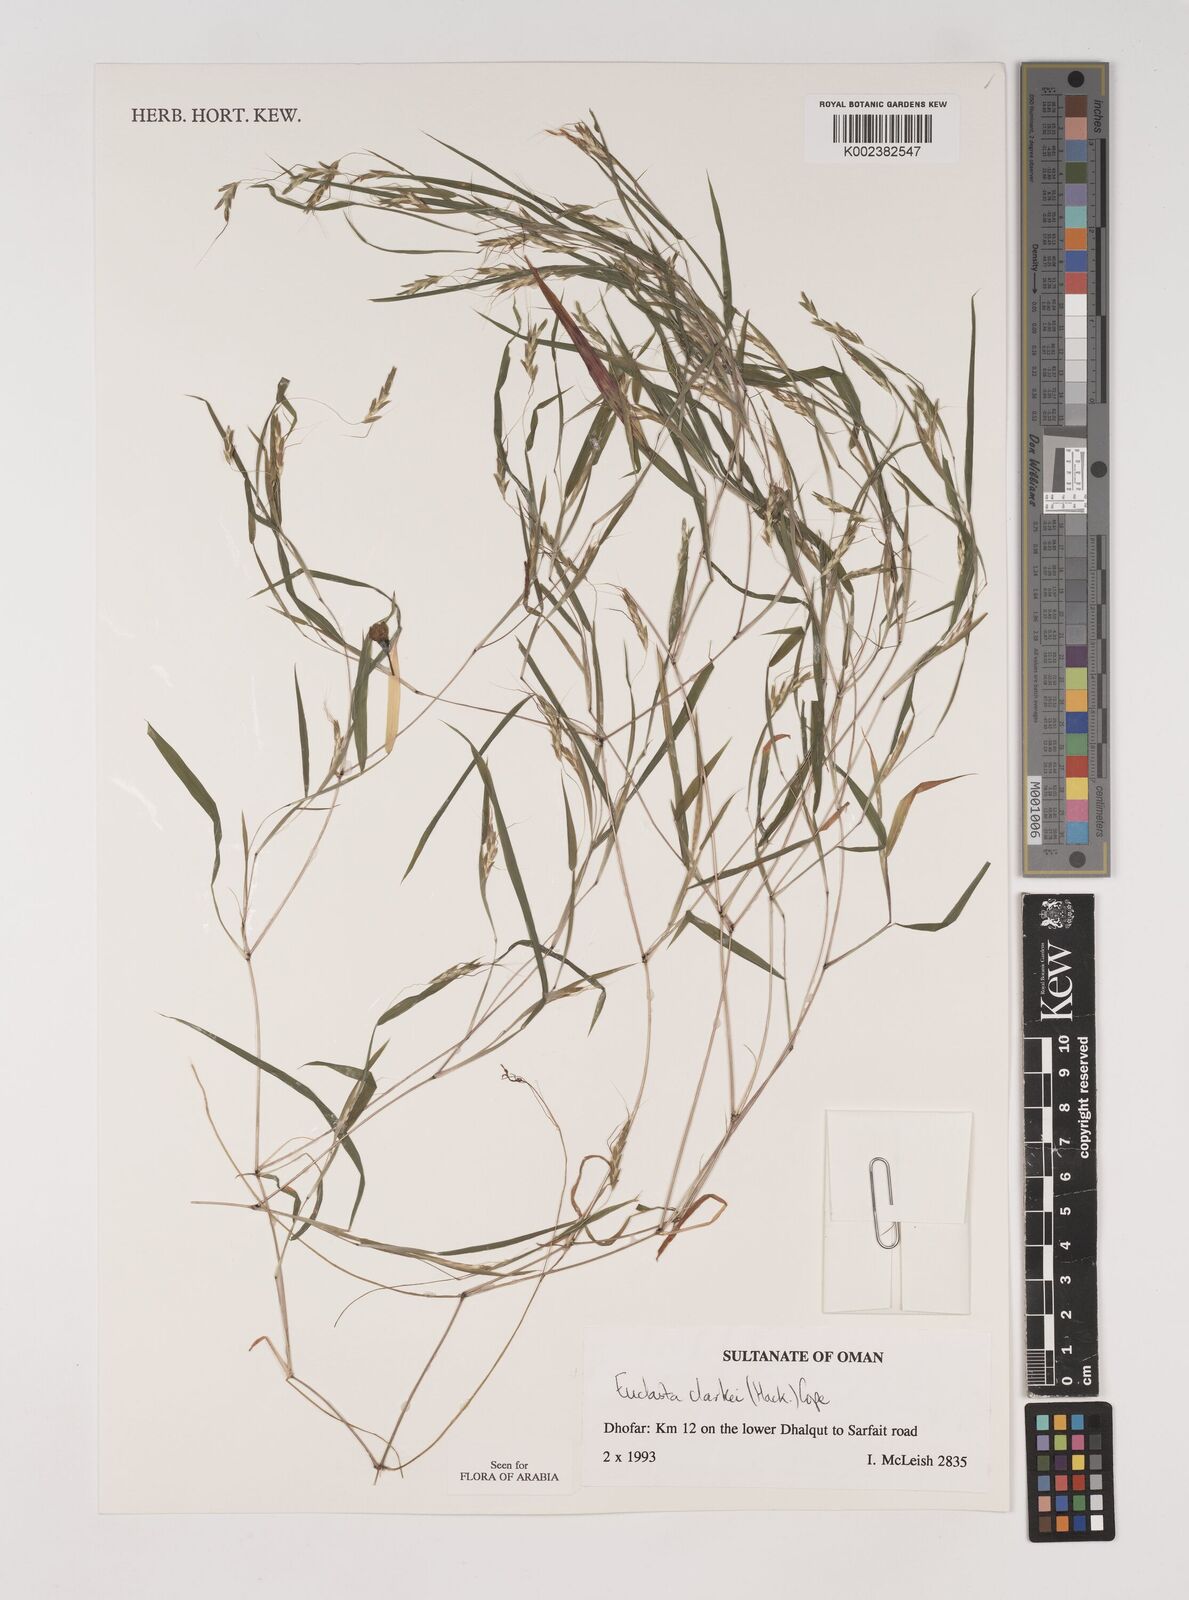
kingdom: Plantae
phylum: Tracheophyta
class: Liliopsida
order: Poales
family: Poaceae
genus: Euclasta
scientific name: Euclasta clarkei
